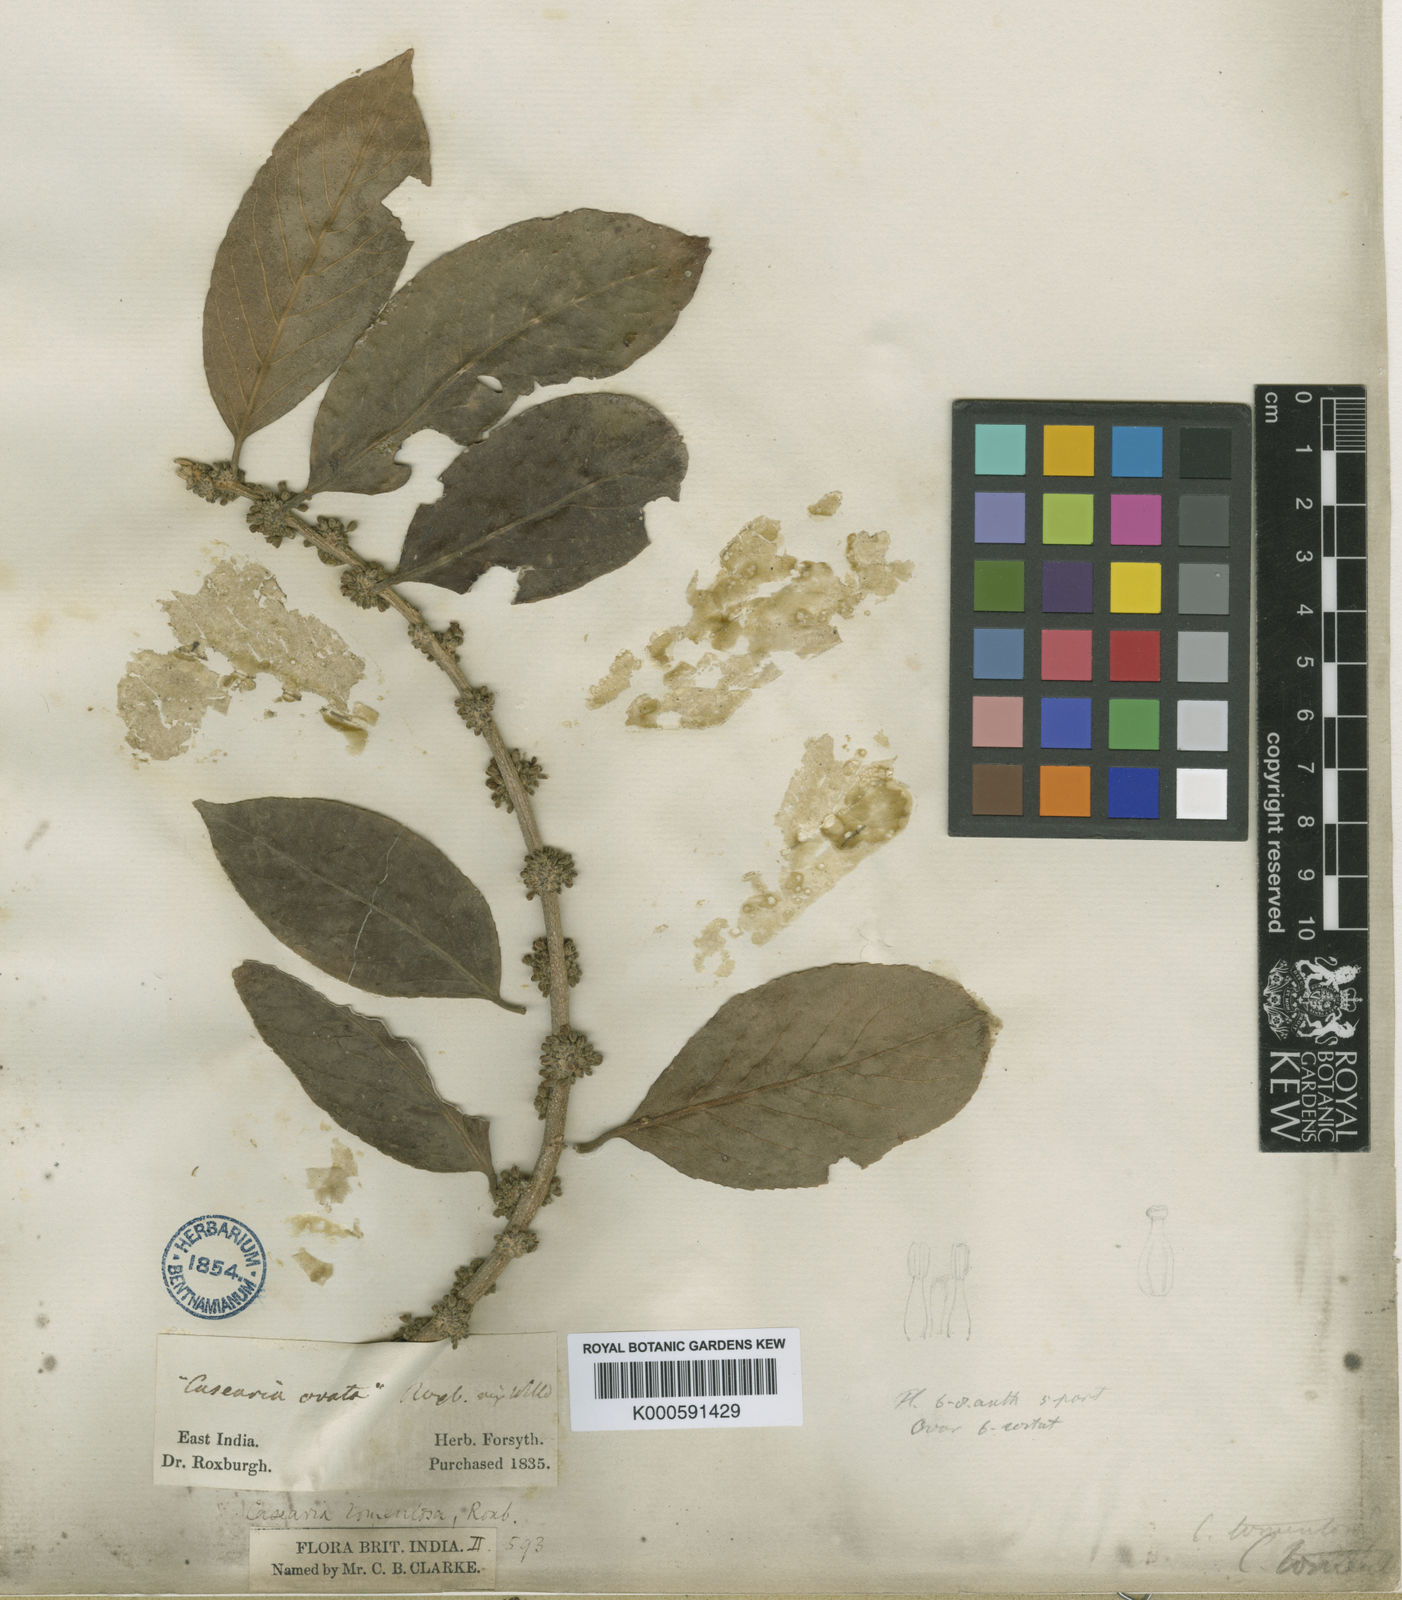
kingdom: Plantae
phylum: Tracheophyta
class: Magnoliopsida
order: Malpighiales
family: Salicaceae
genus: Casearia
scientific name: Casearia tomentosa
